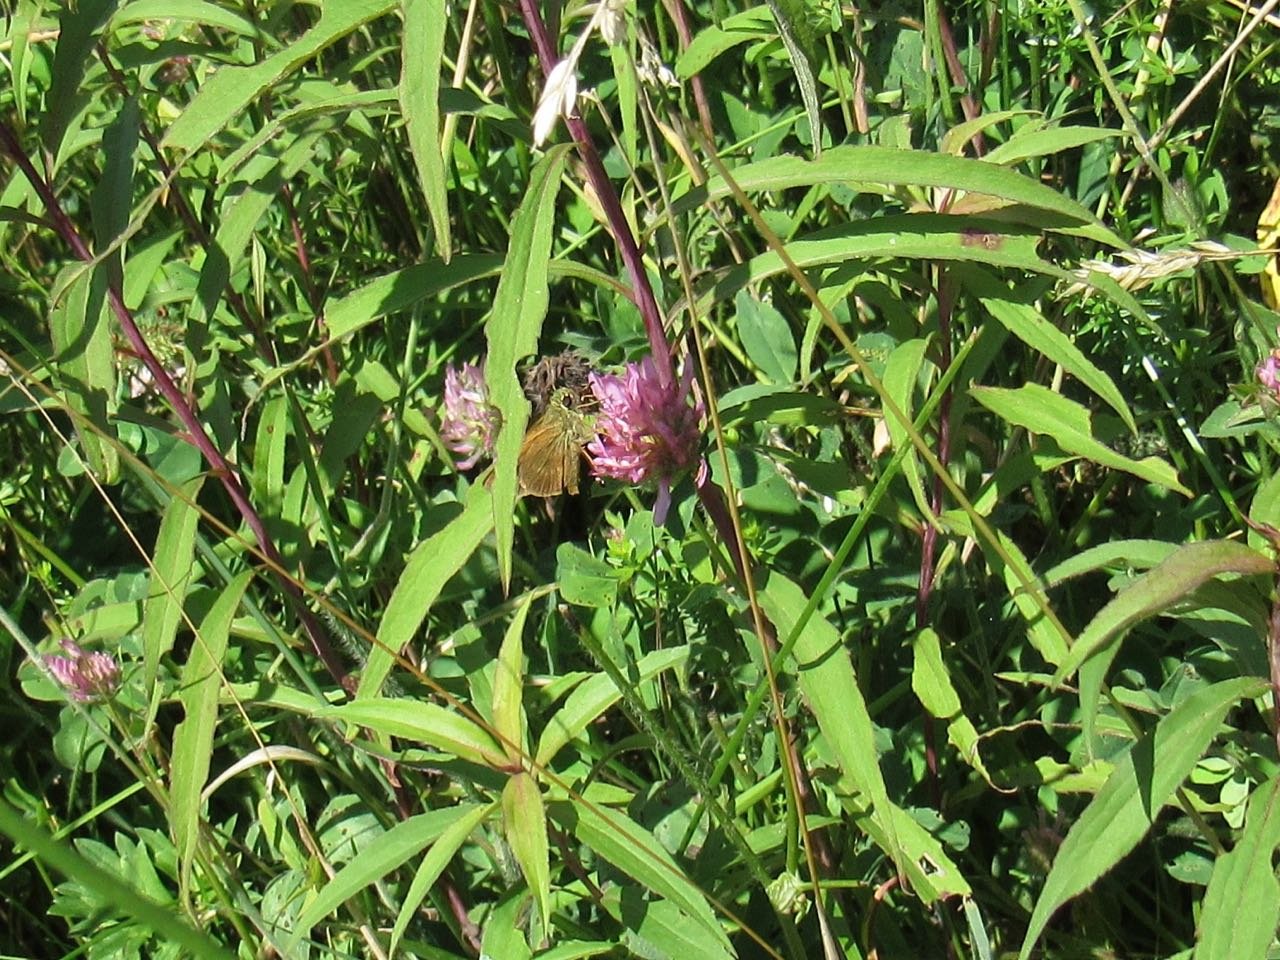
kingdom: Animalia
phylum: Arthropoda
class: Insecta
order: Lepidoptera
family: Hesperiidae
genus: Polites
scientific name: Polites egeremet
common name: Northern Broken-Dash
